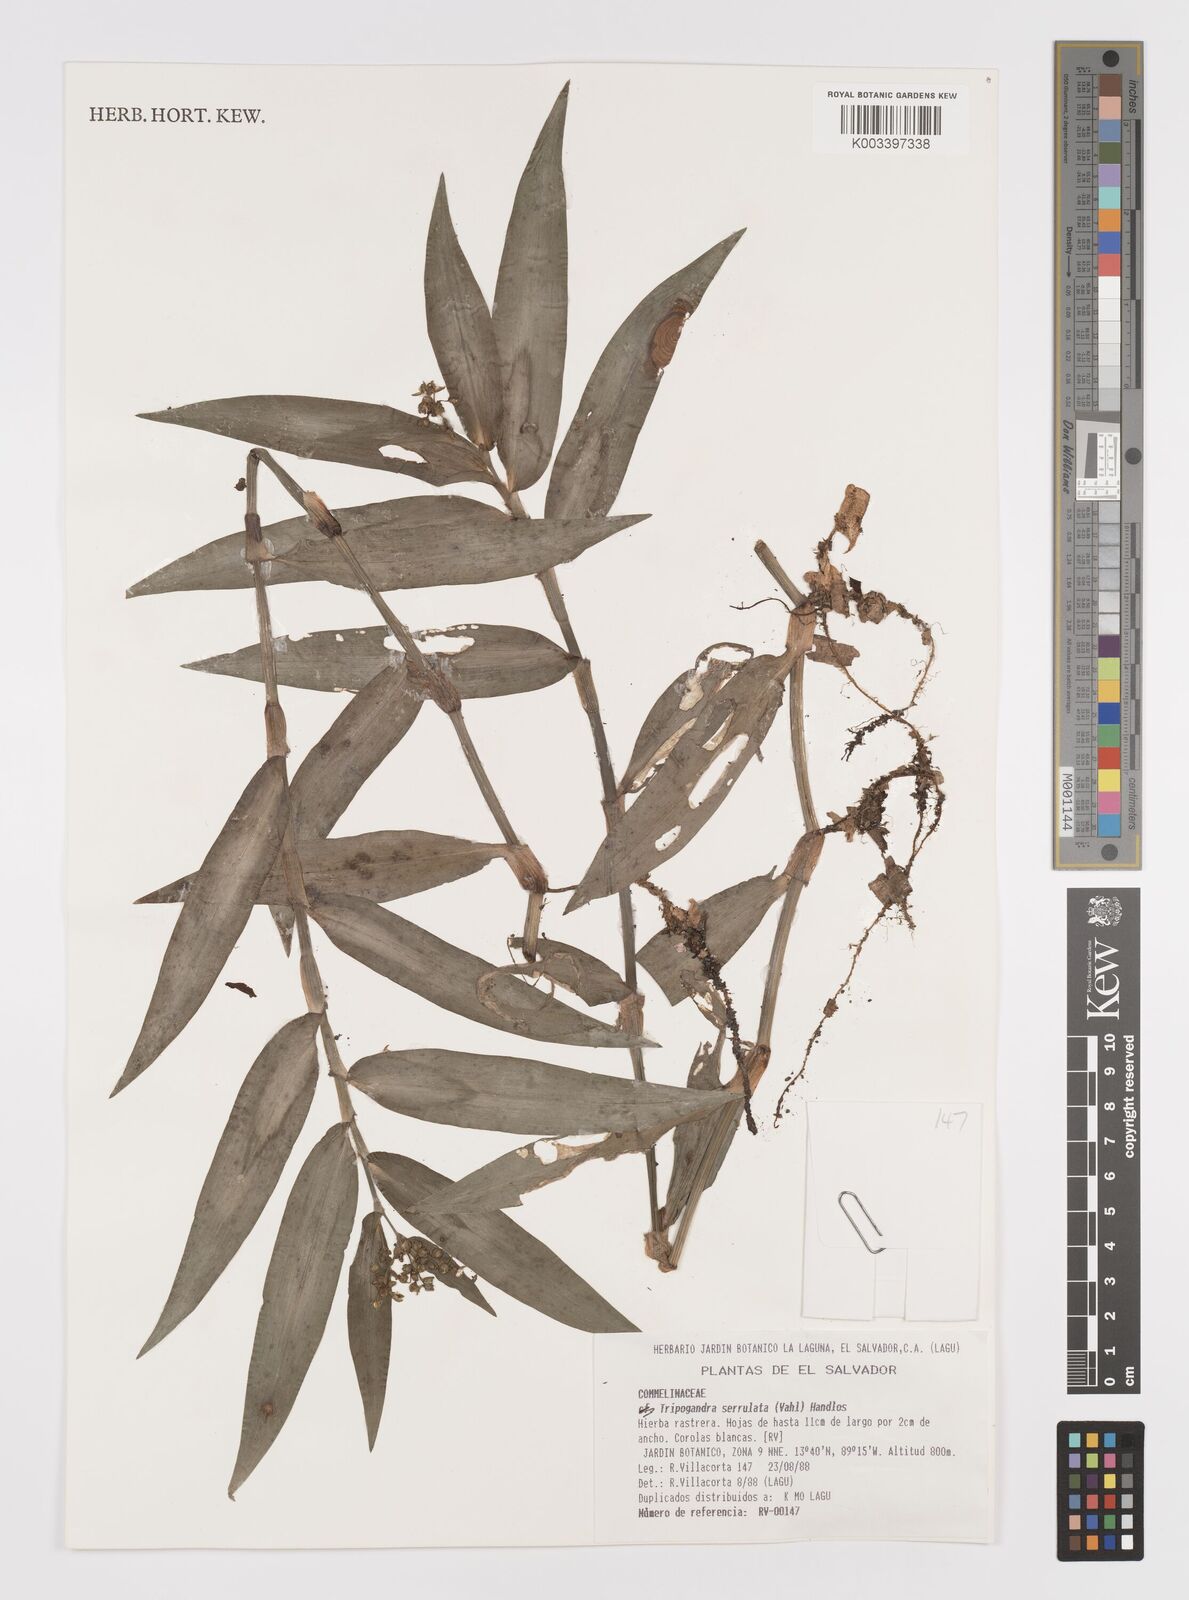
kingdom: Plantae
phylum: Tracheophyta
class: Liliopsida
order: Commelinales
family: Commelinaceae
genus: Callisia
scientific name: Callisia serrulata
